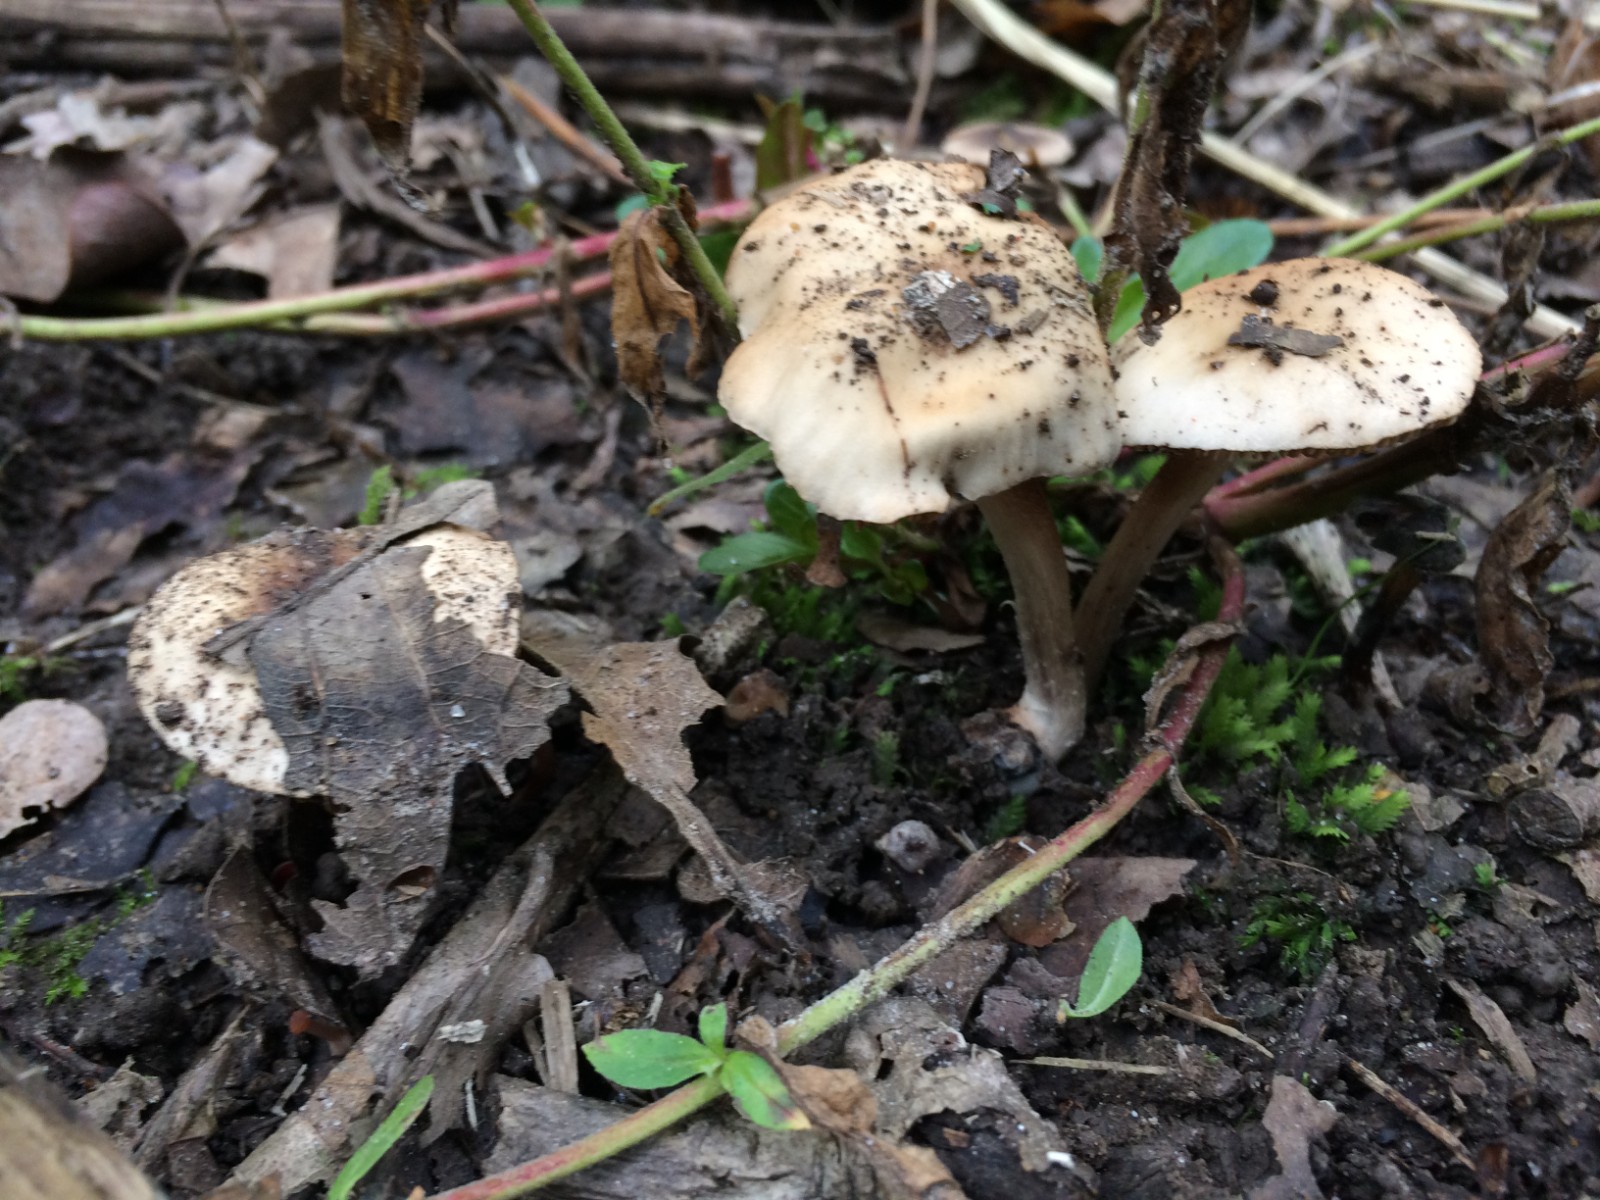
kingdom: Fungi
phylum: Basidiomycota
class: Agaricomycetes
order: Agaricales
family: Hymenogastraceae
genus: Hebeloma
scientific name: Hebeloma sacchariolens
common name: sødtduftende tåreblad
